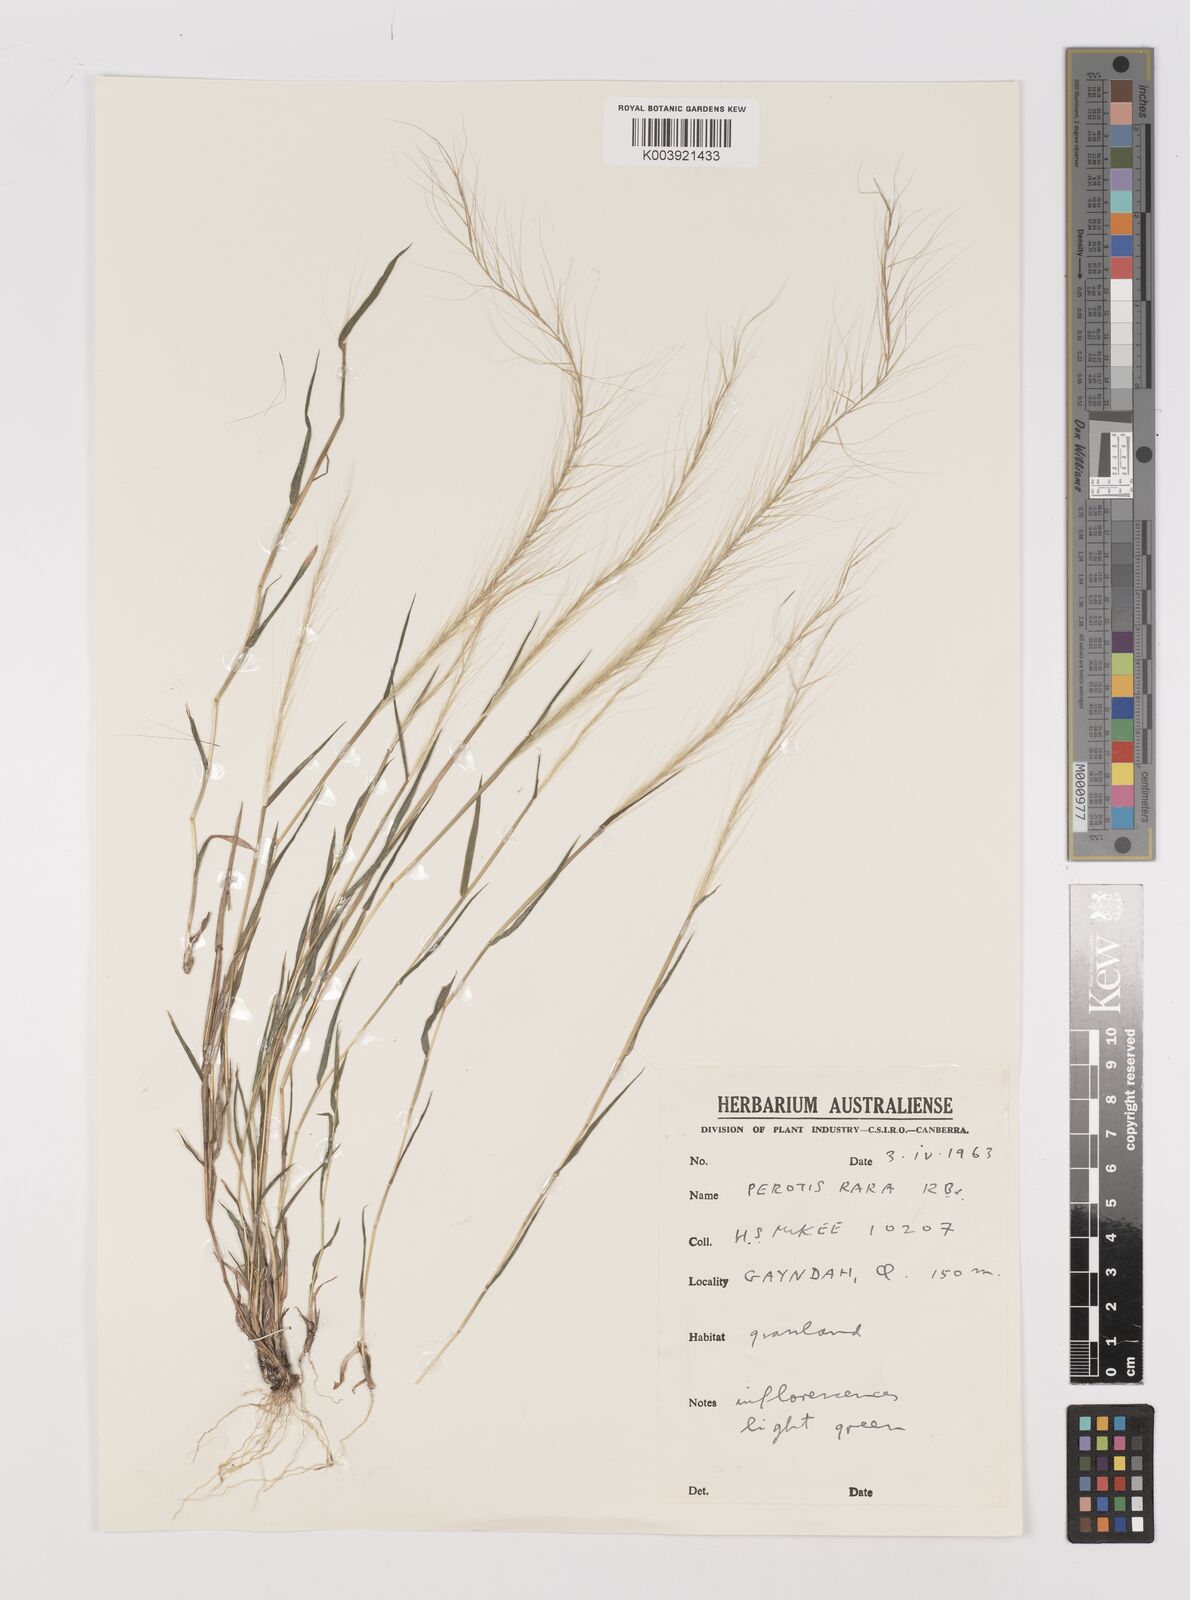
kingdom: Plantae
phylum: Tracheophyta
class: Liliopsida
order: Poales
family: Poaceae
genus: Perotis
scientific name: Perotis rara
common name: Comet grass
